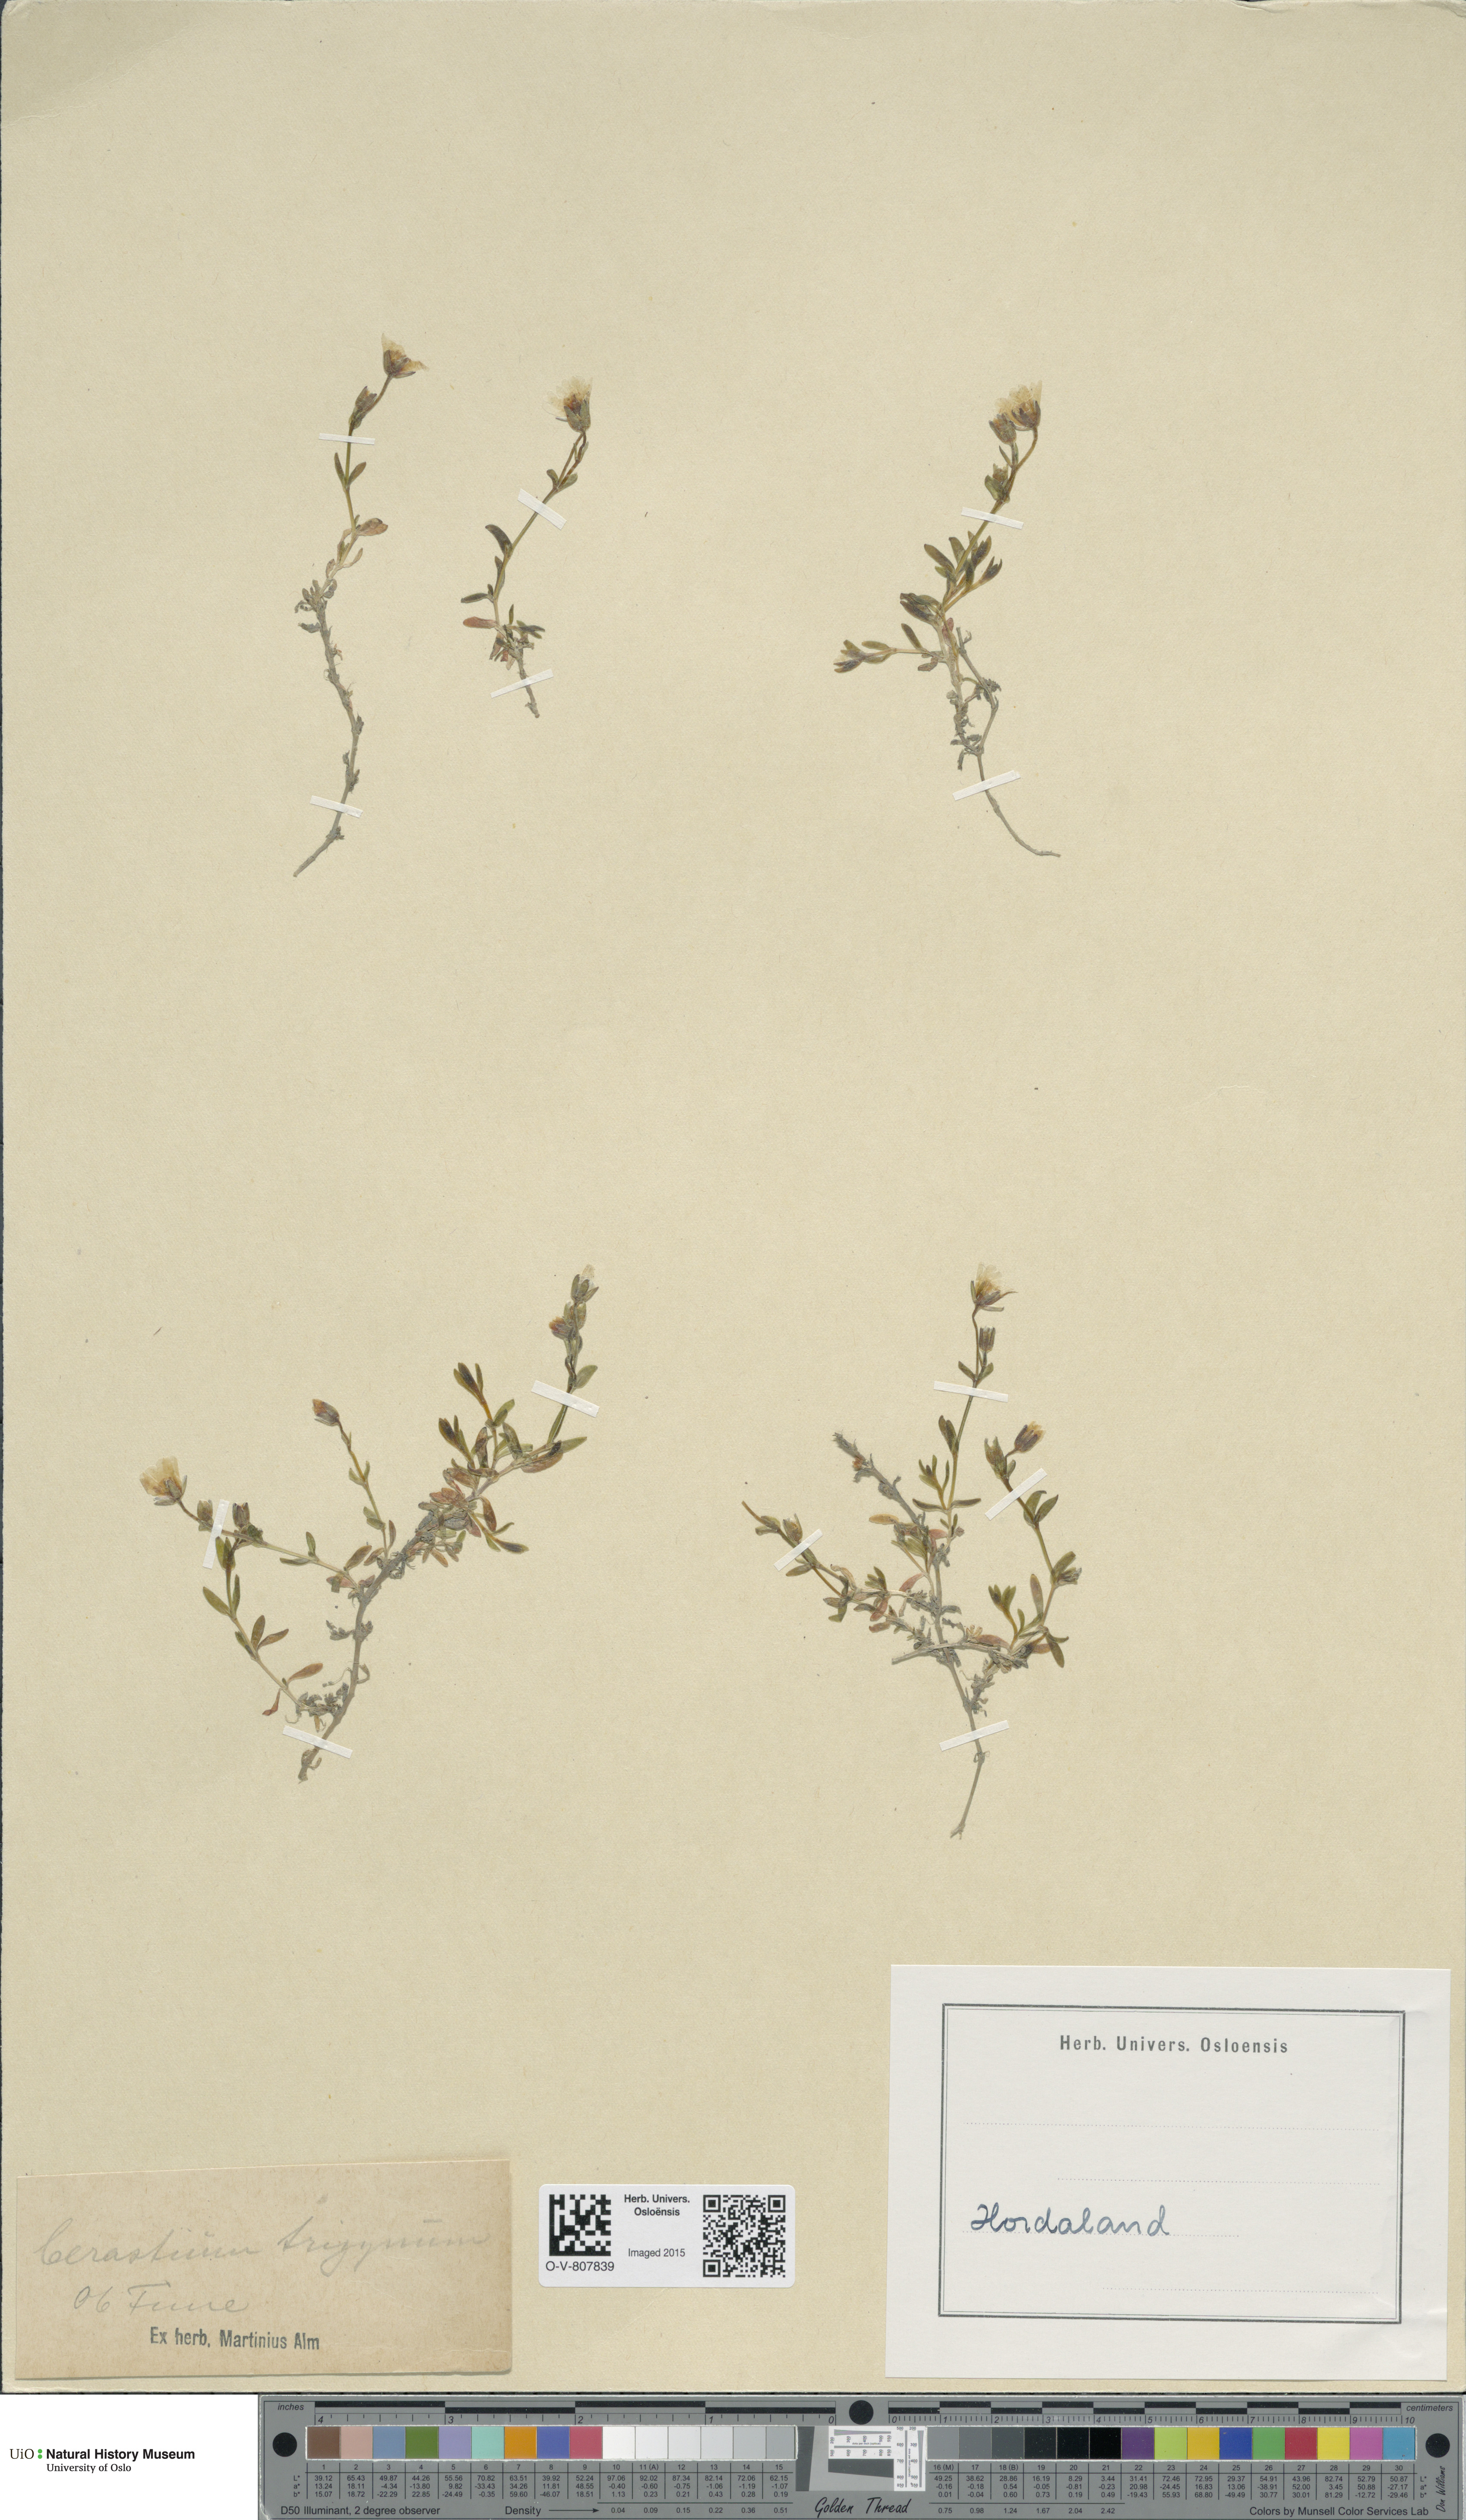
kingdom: Plantae
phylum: Tracheophyta
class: Magnoliopsida
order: Caryophyllales
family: Caryophyllaceae
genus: Dichodon
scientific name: Dichodon cerastoides
